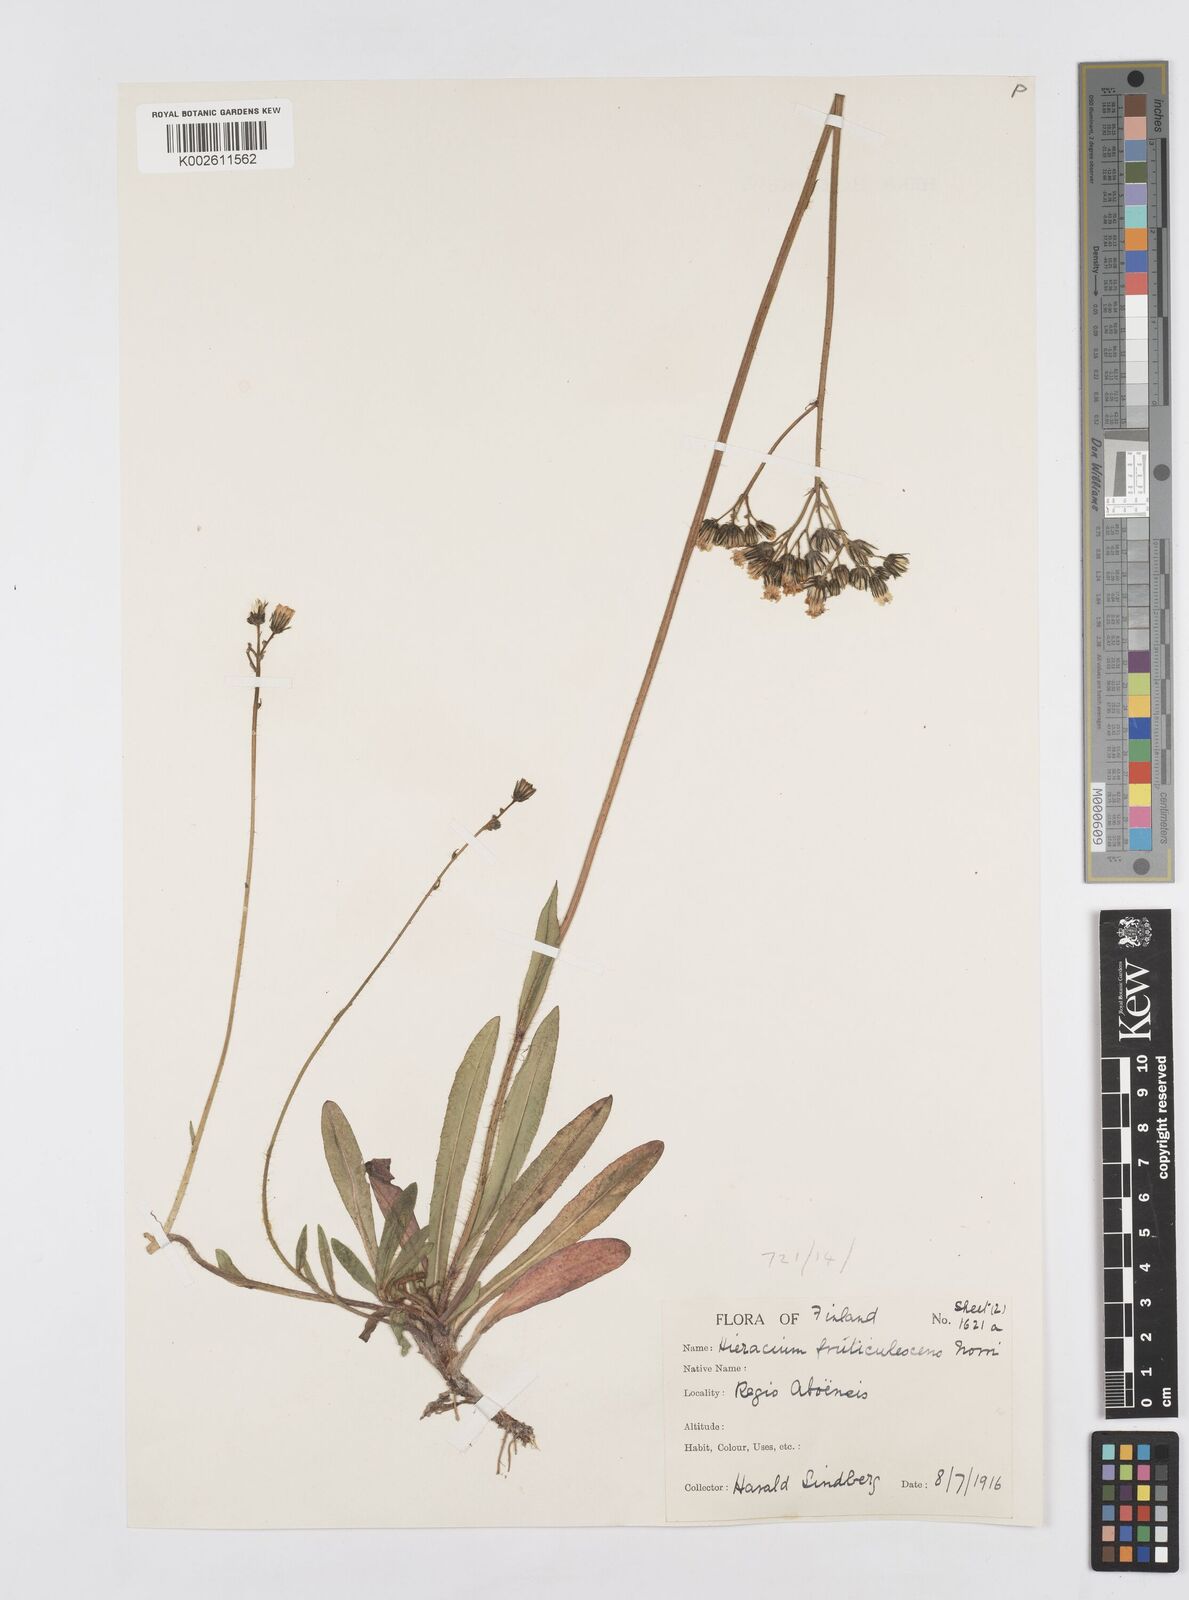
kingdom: Plantae
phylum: Tracheophyta
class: Magnoliopsida
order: Asterales
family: Asteraceae
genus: Pilosella
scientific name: Pilosella erythrochrista
